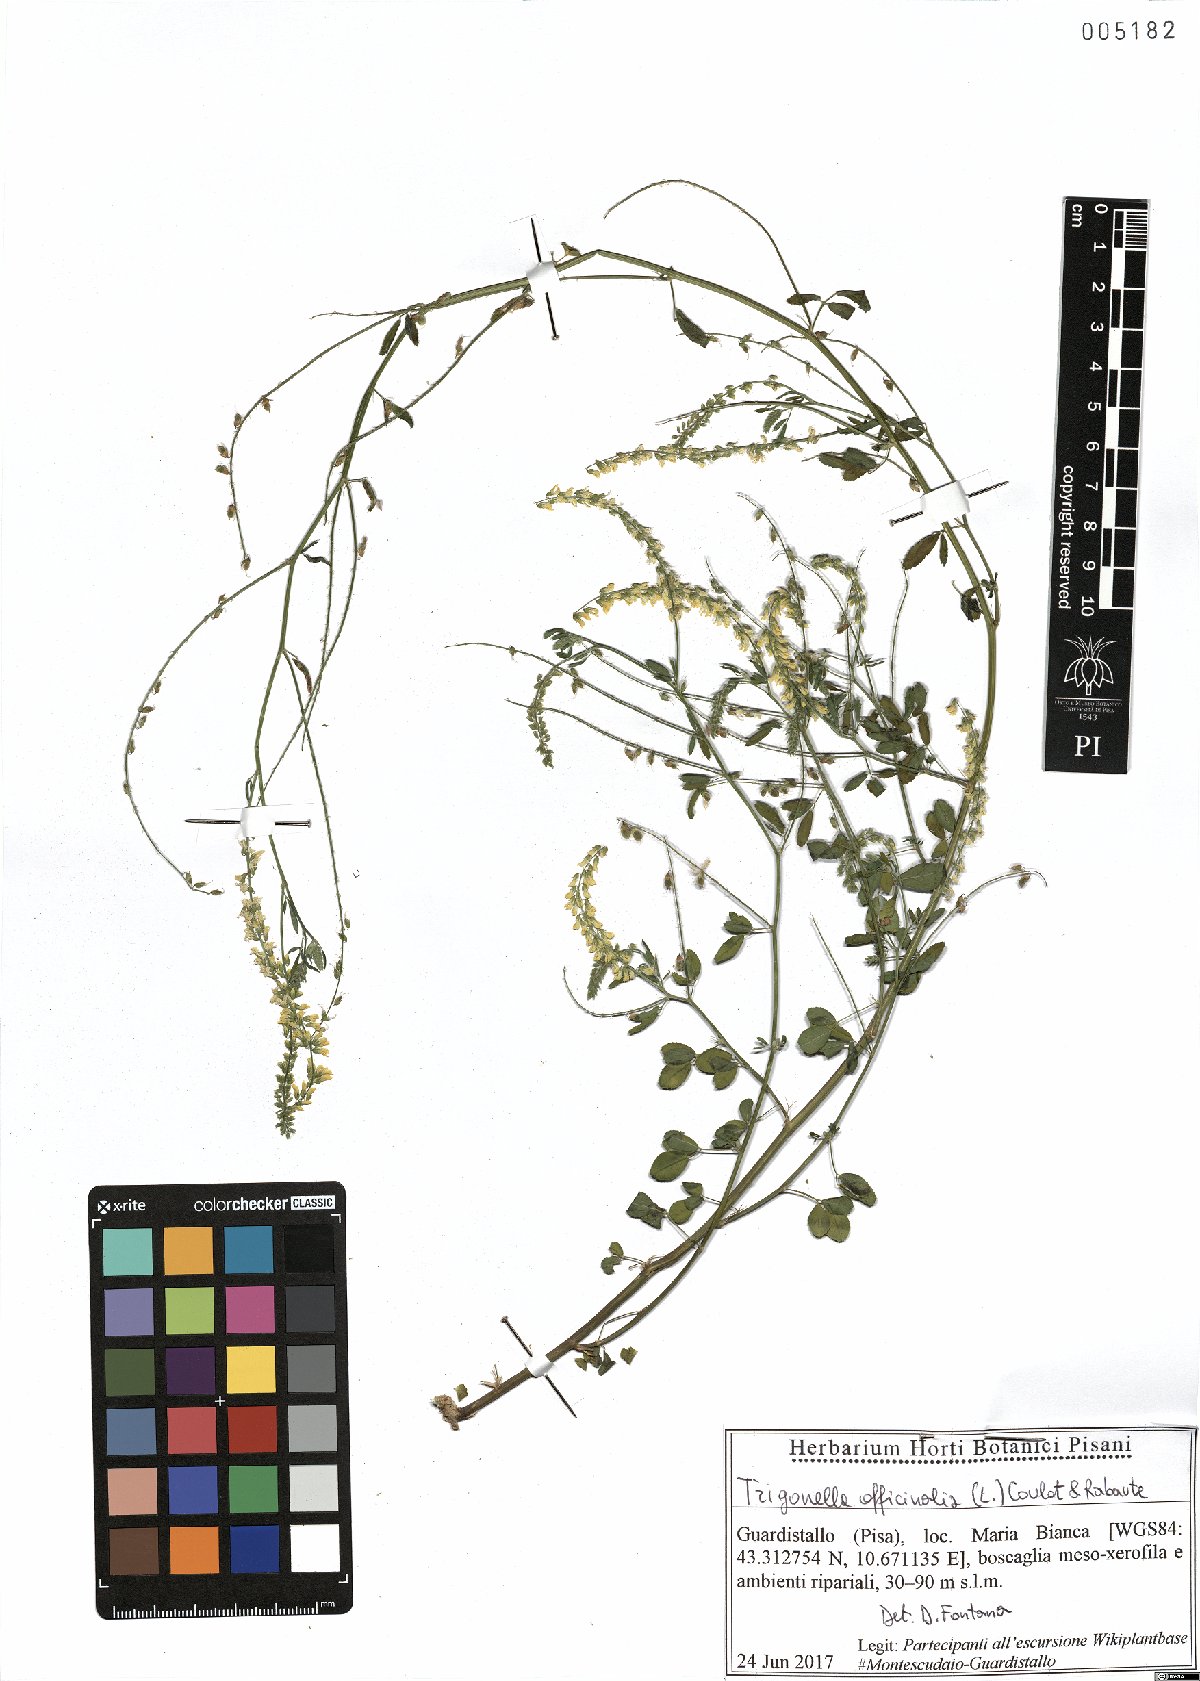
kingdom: Plantae
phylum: Tracheophyta
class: Magnoliopsida
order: Fabales
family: Fabaceae
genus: Melilotus
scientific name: Melilotus officinalis
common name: Sweetclover
